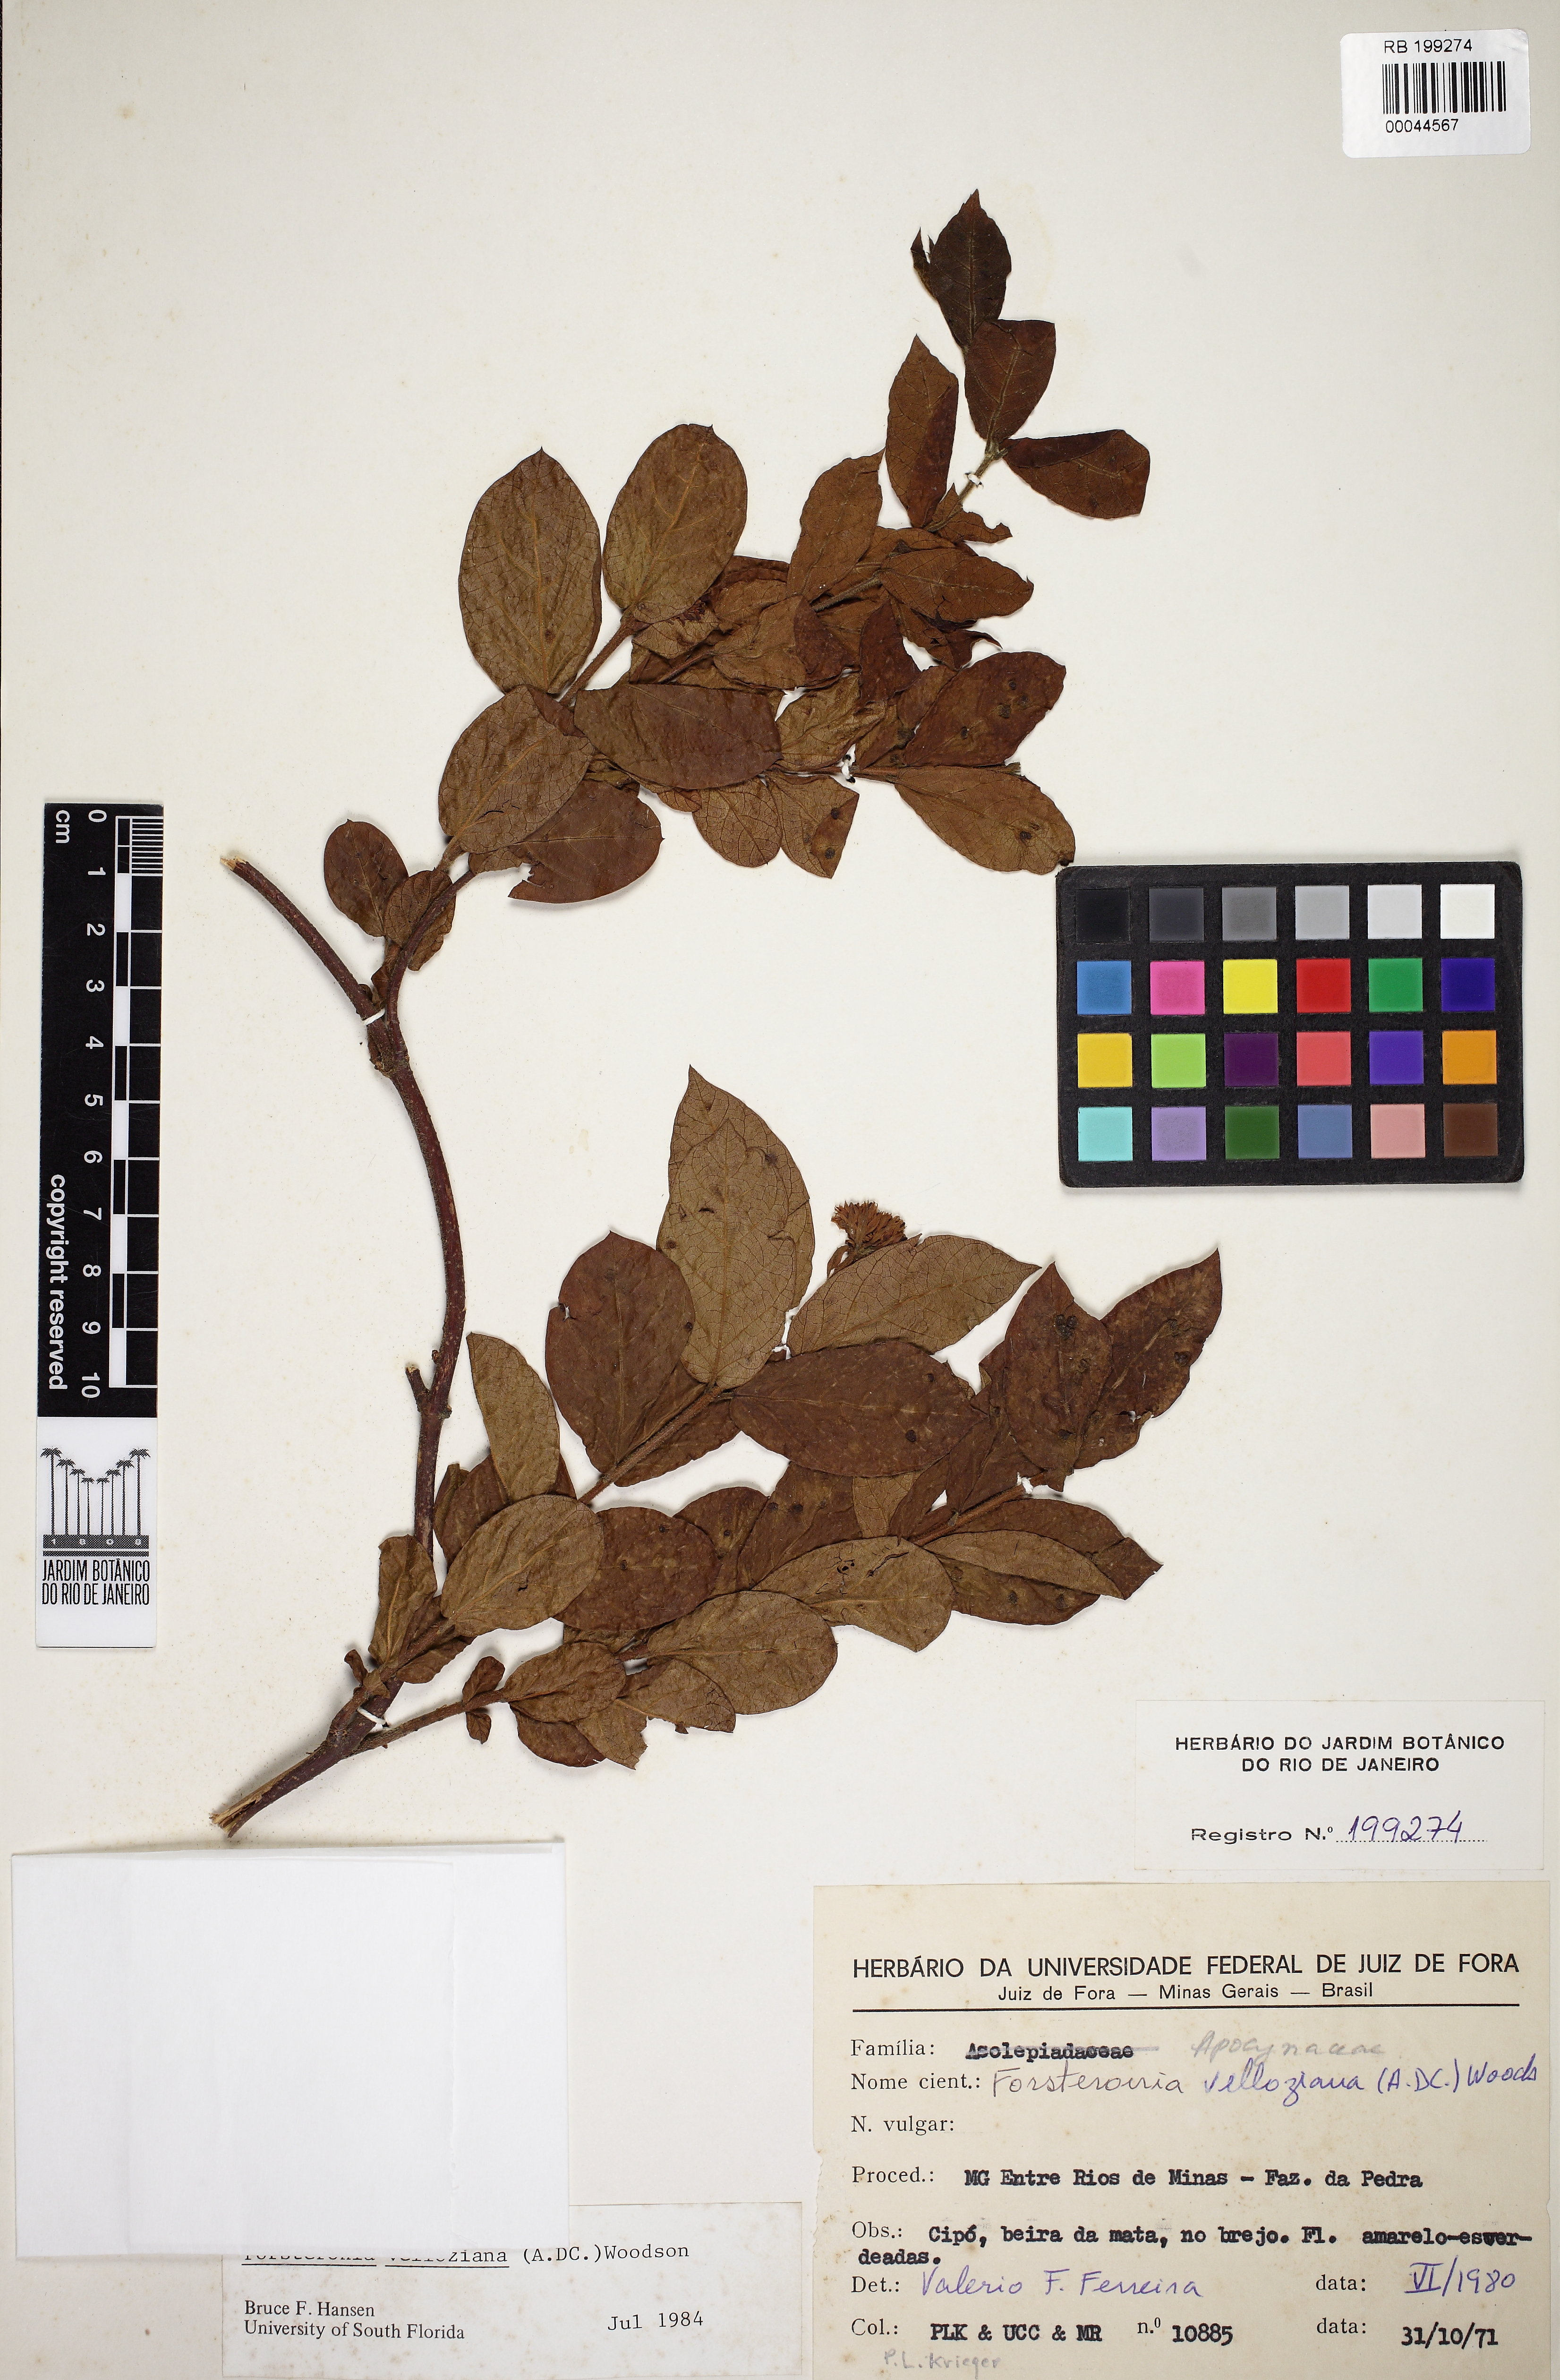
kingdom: Plantae
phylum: Tracheophyta
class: Magnoliopsida
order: Gentianales
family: Apocynaceae
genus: Forsteronia
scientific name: Forsteronia velloziana
